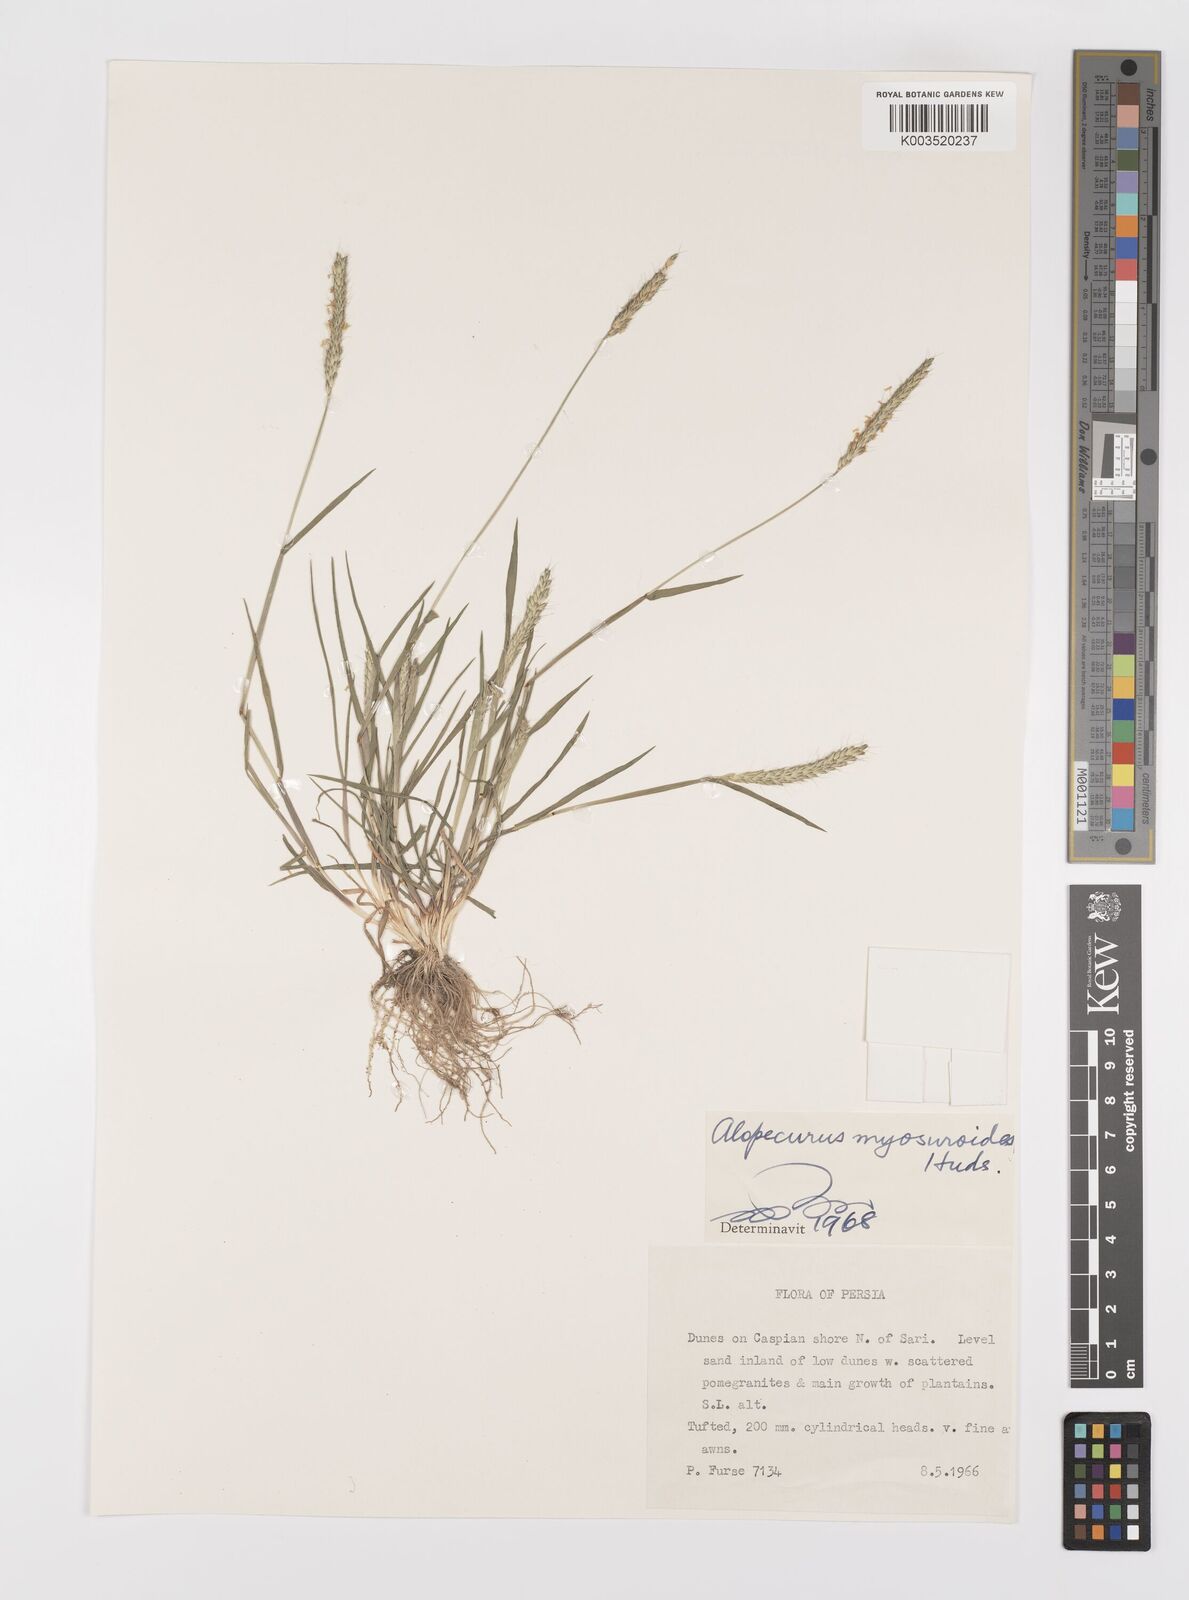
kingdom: Plantae
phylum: Tracheophyta
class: Liliopsida
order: Poales
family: Poaceae
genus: Alopecurus
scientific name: Alopecurus myosuroides
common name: Black-grass
